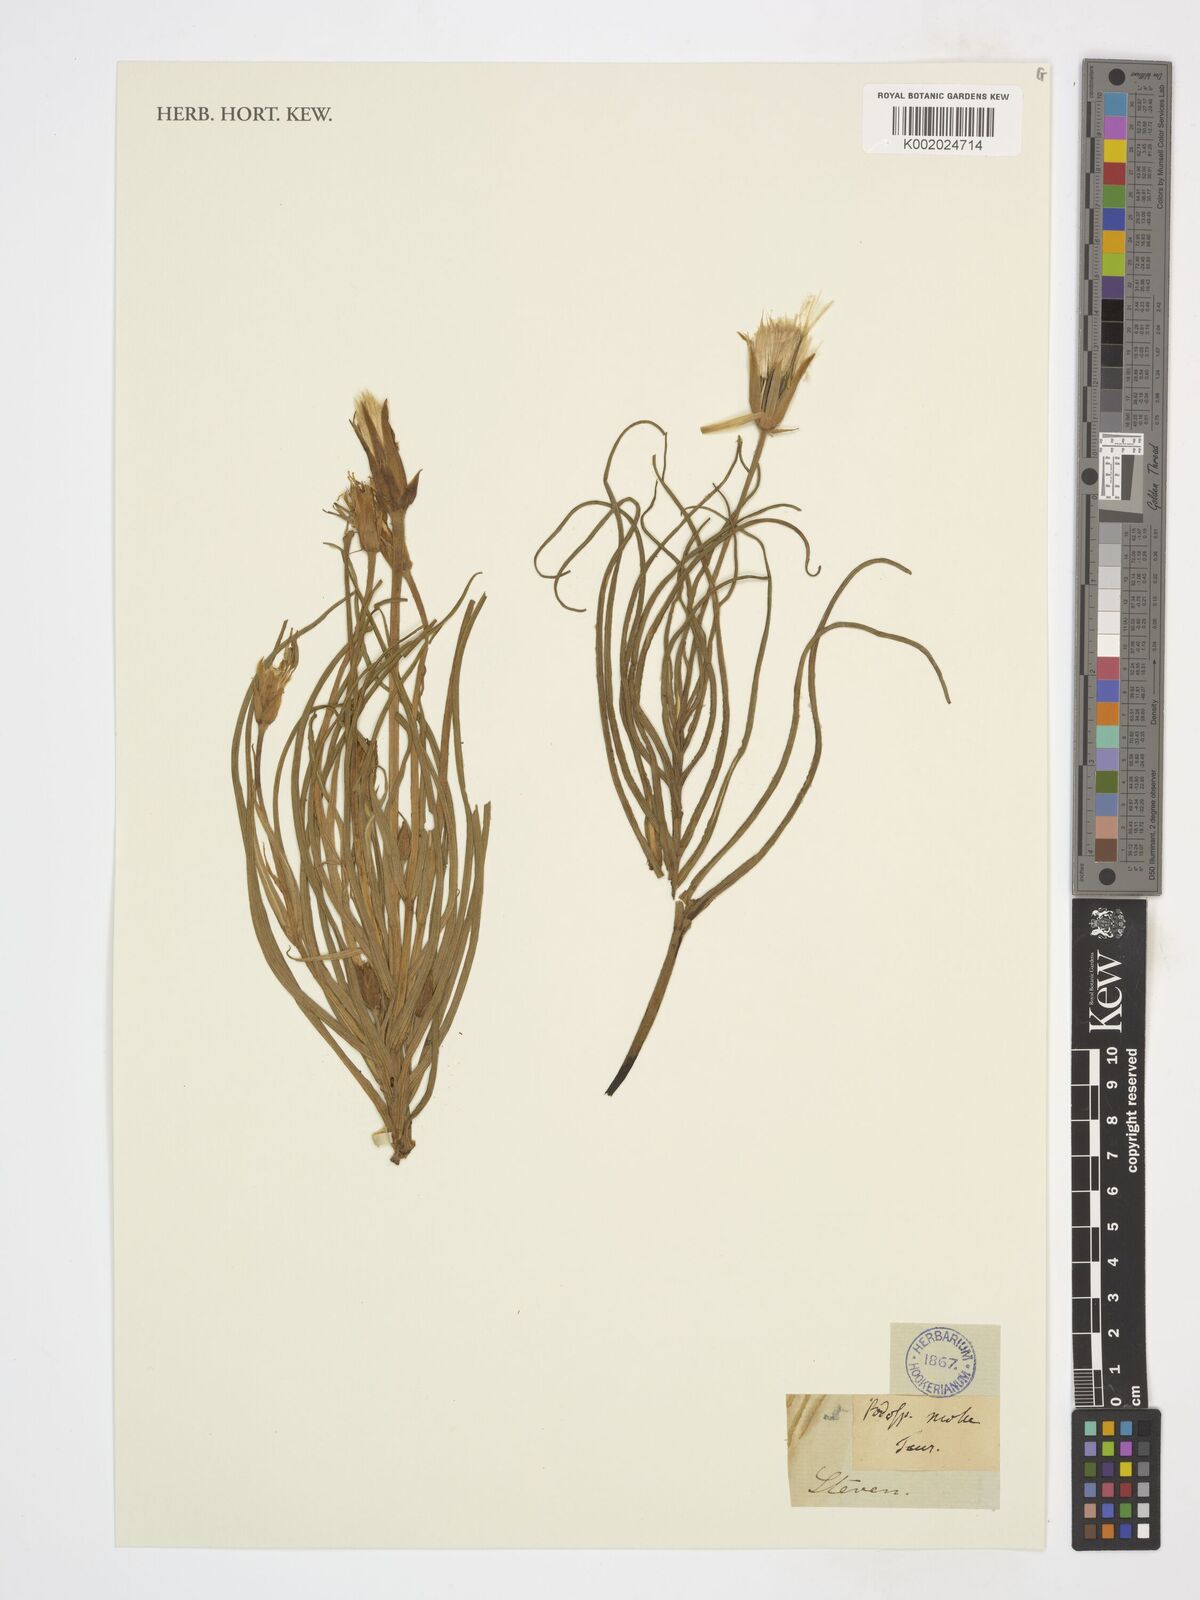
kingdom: Plantae
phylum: Tracheophyta
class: Magnoliopsida
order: Asterales
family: Asteraceae
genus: Scorzonera
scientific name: Scorzonera
